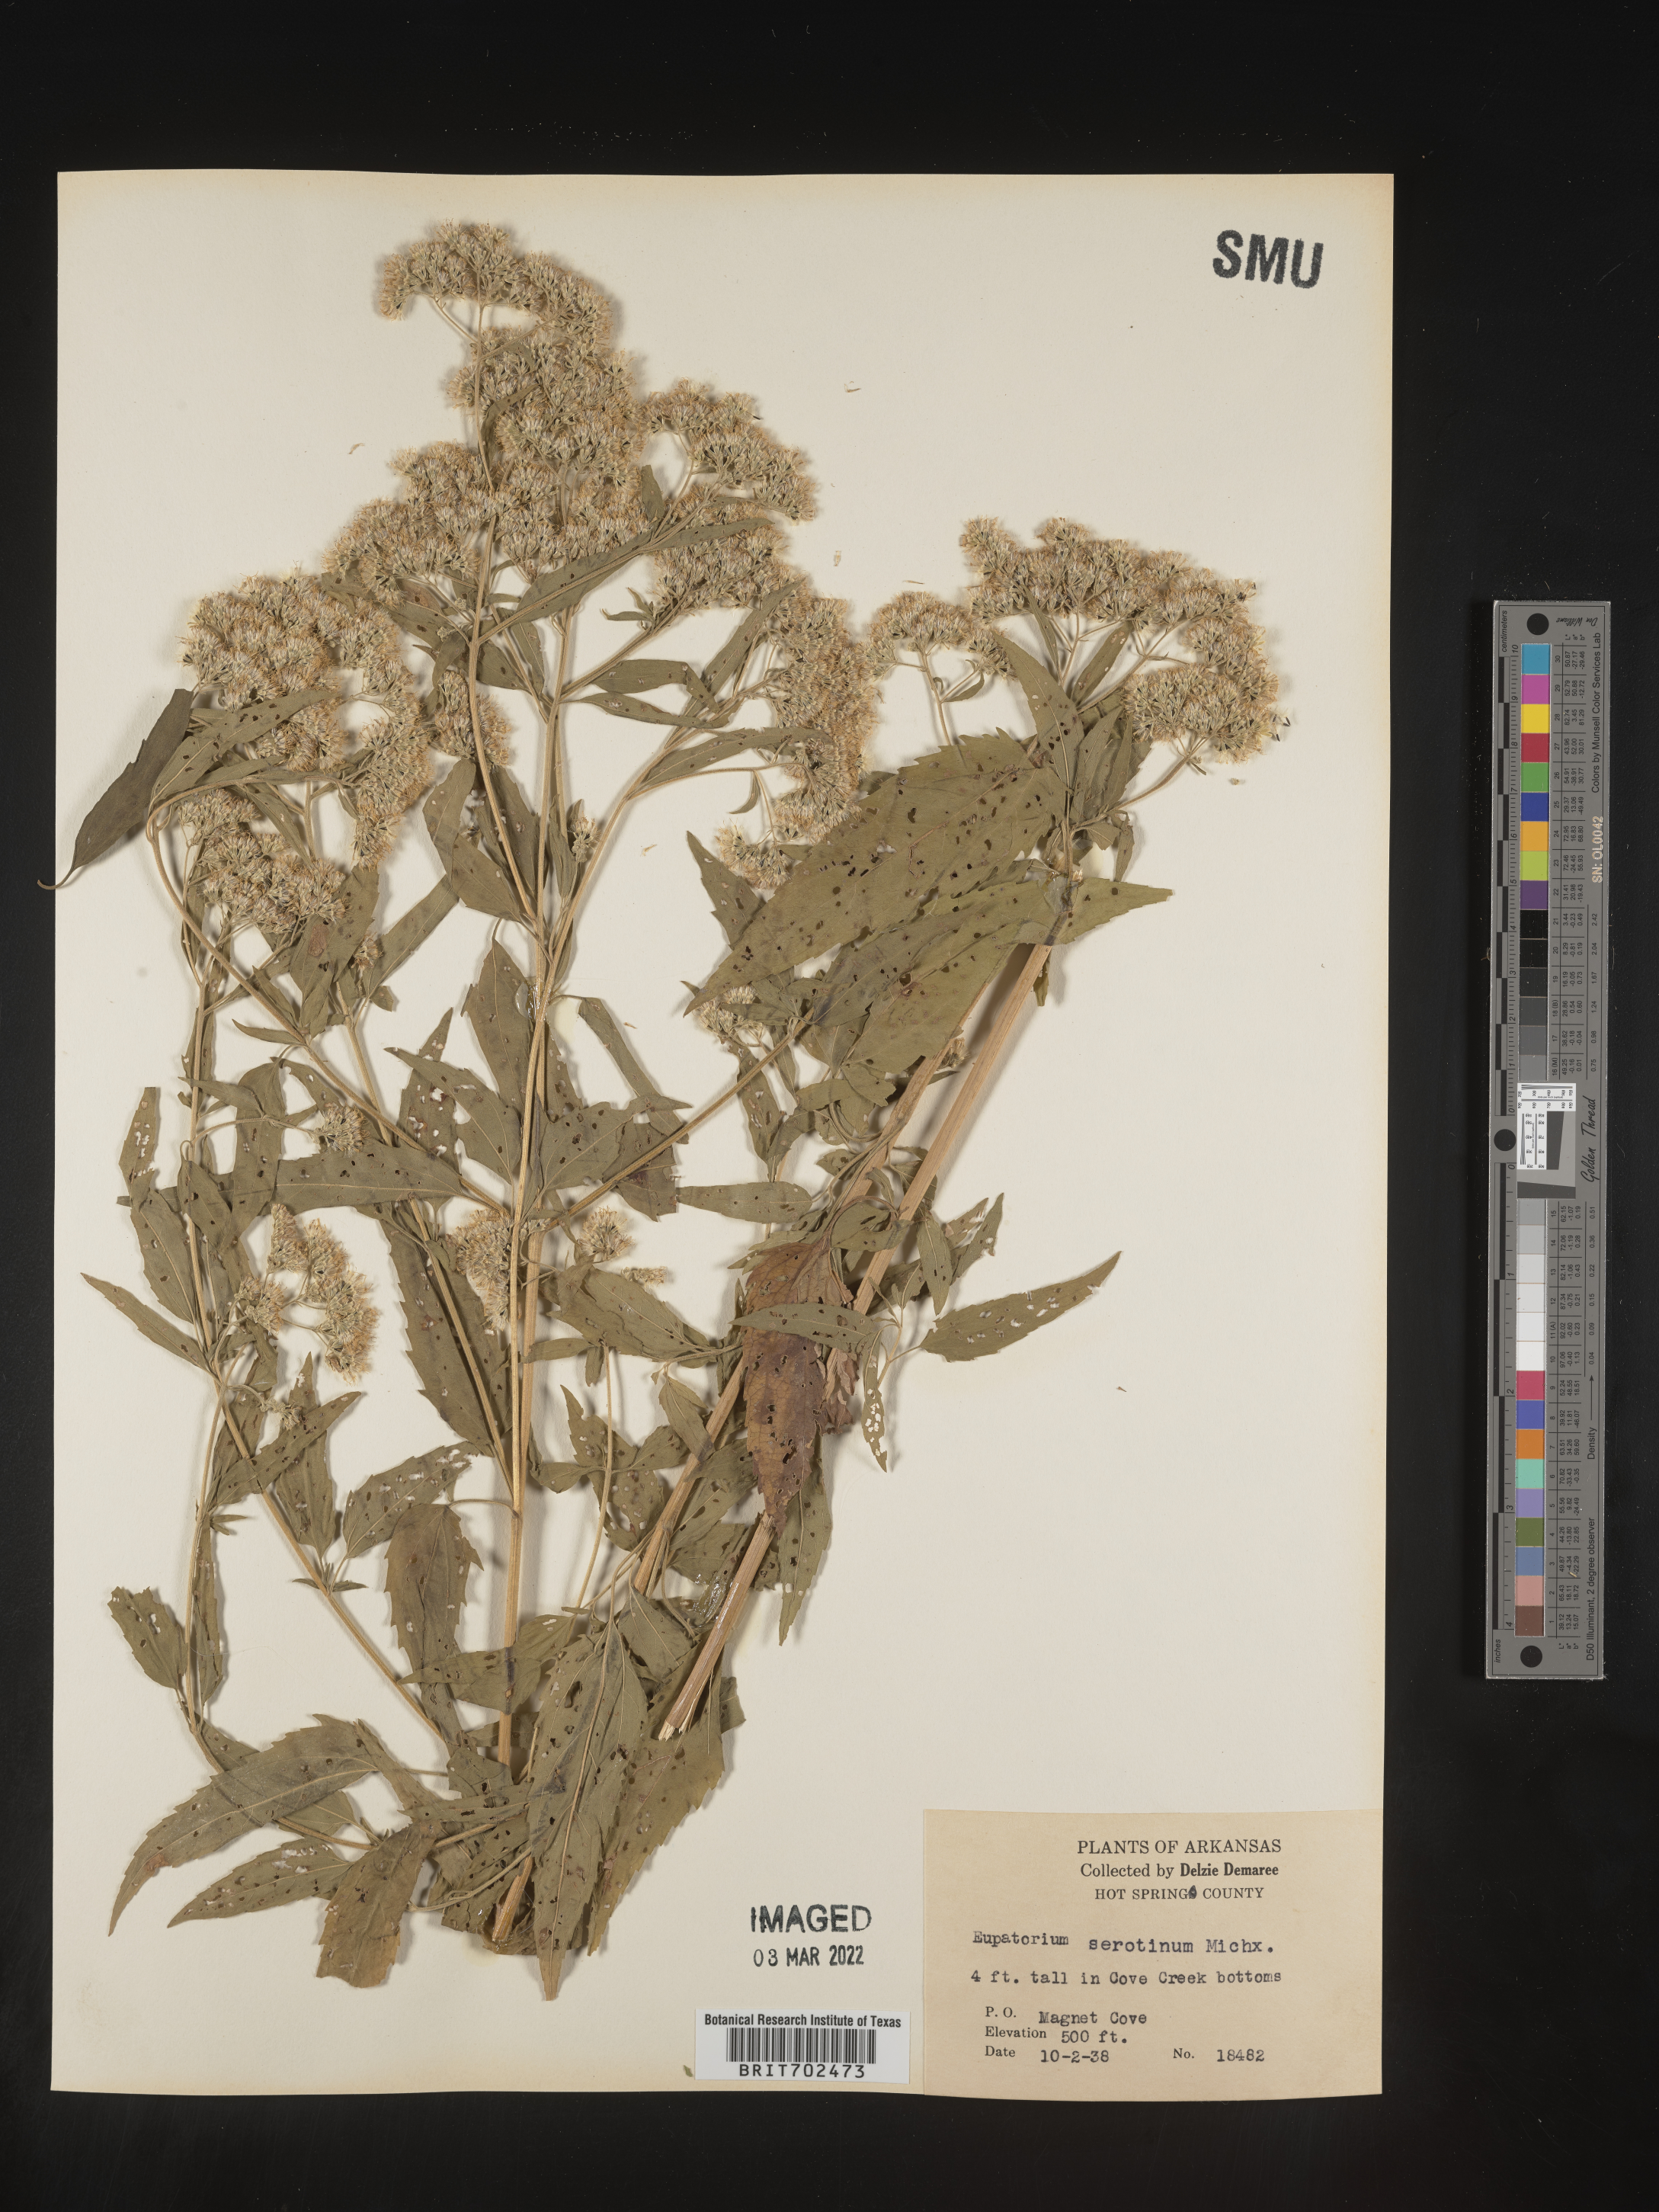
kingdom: Plantae
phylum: Tracheophyta
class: Magnoliopsida
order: Asterales
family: Asteraceae
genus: Eupatorium
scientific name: Eupatorium serotinum
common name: Late boneset
